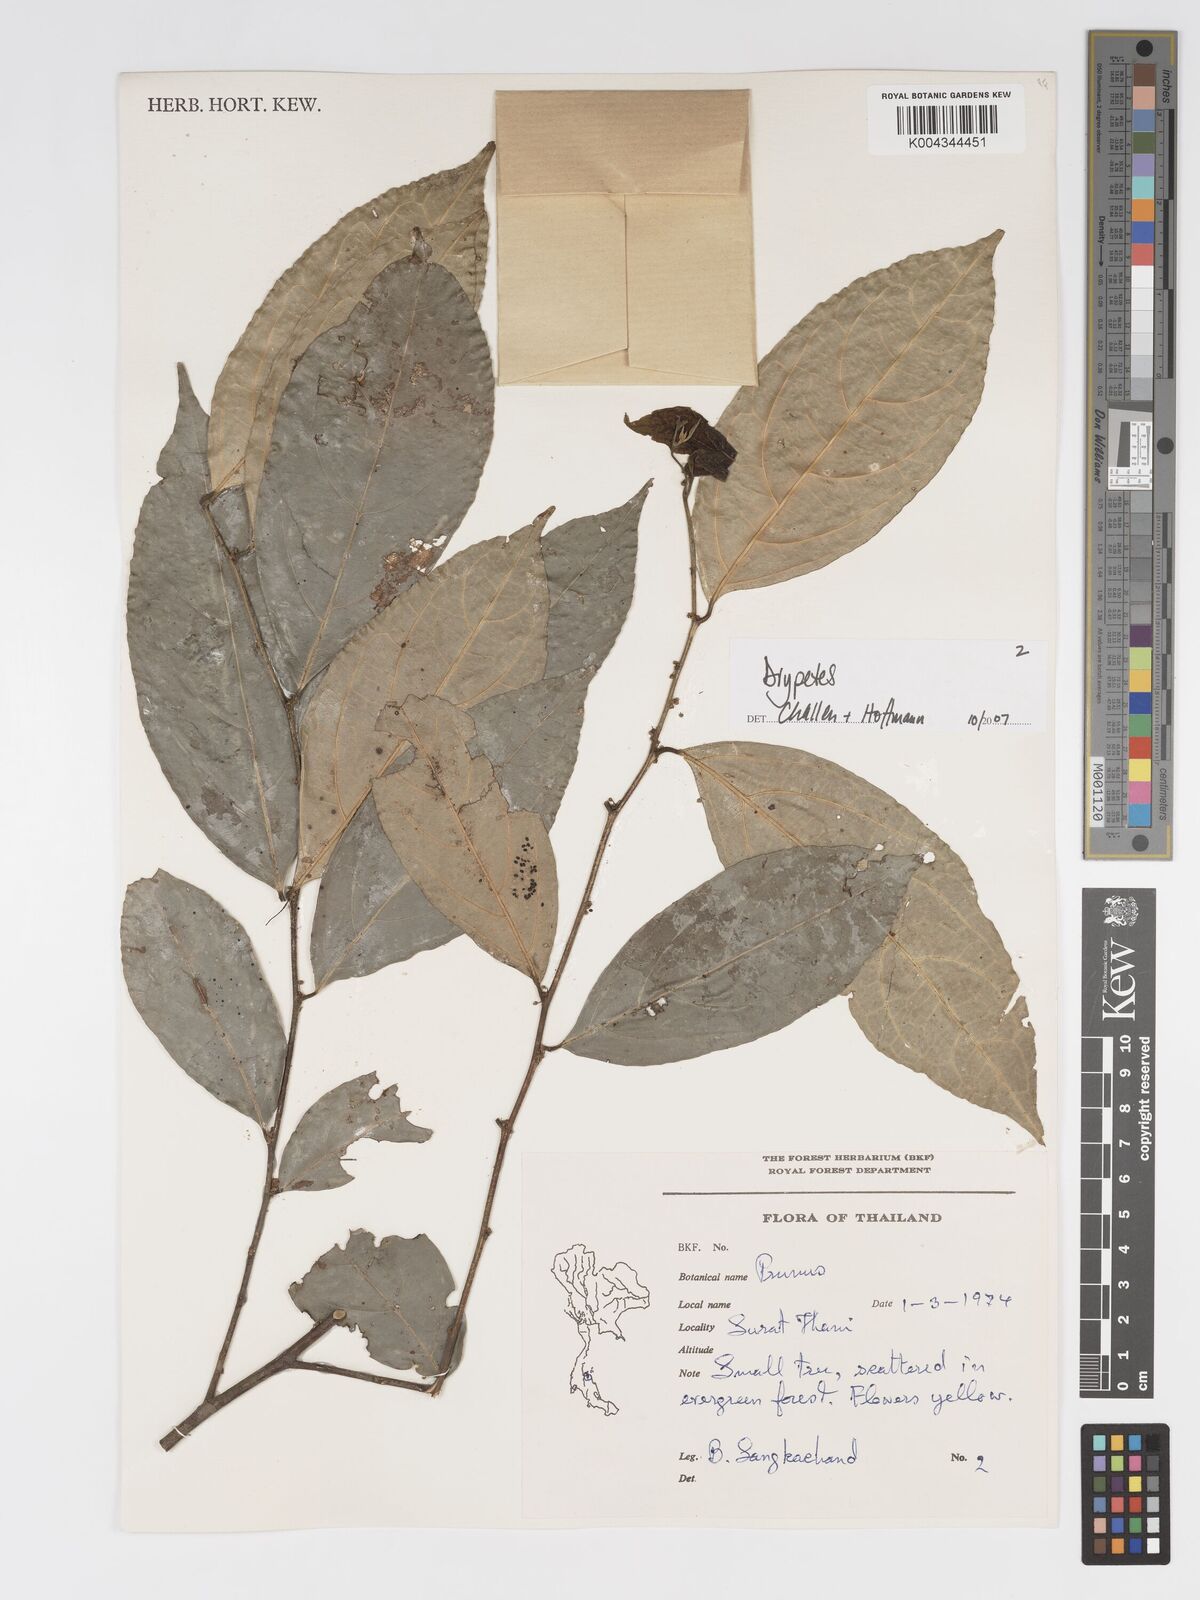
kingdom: Plantae
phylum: Tracheophyta
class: Magnoliopsida
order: Malpighiales
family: Putranjivaceae
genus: Drypetes
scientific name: Drypetes
